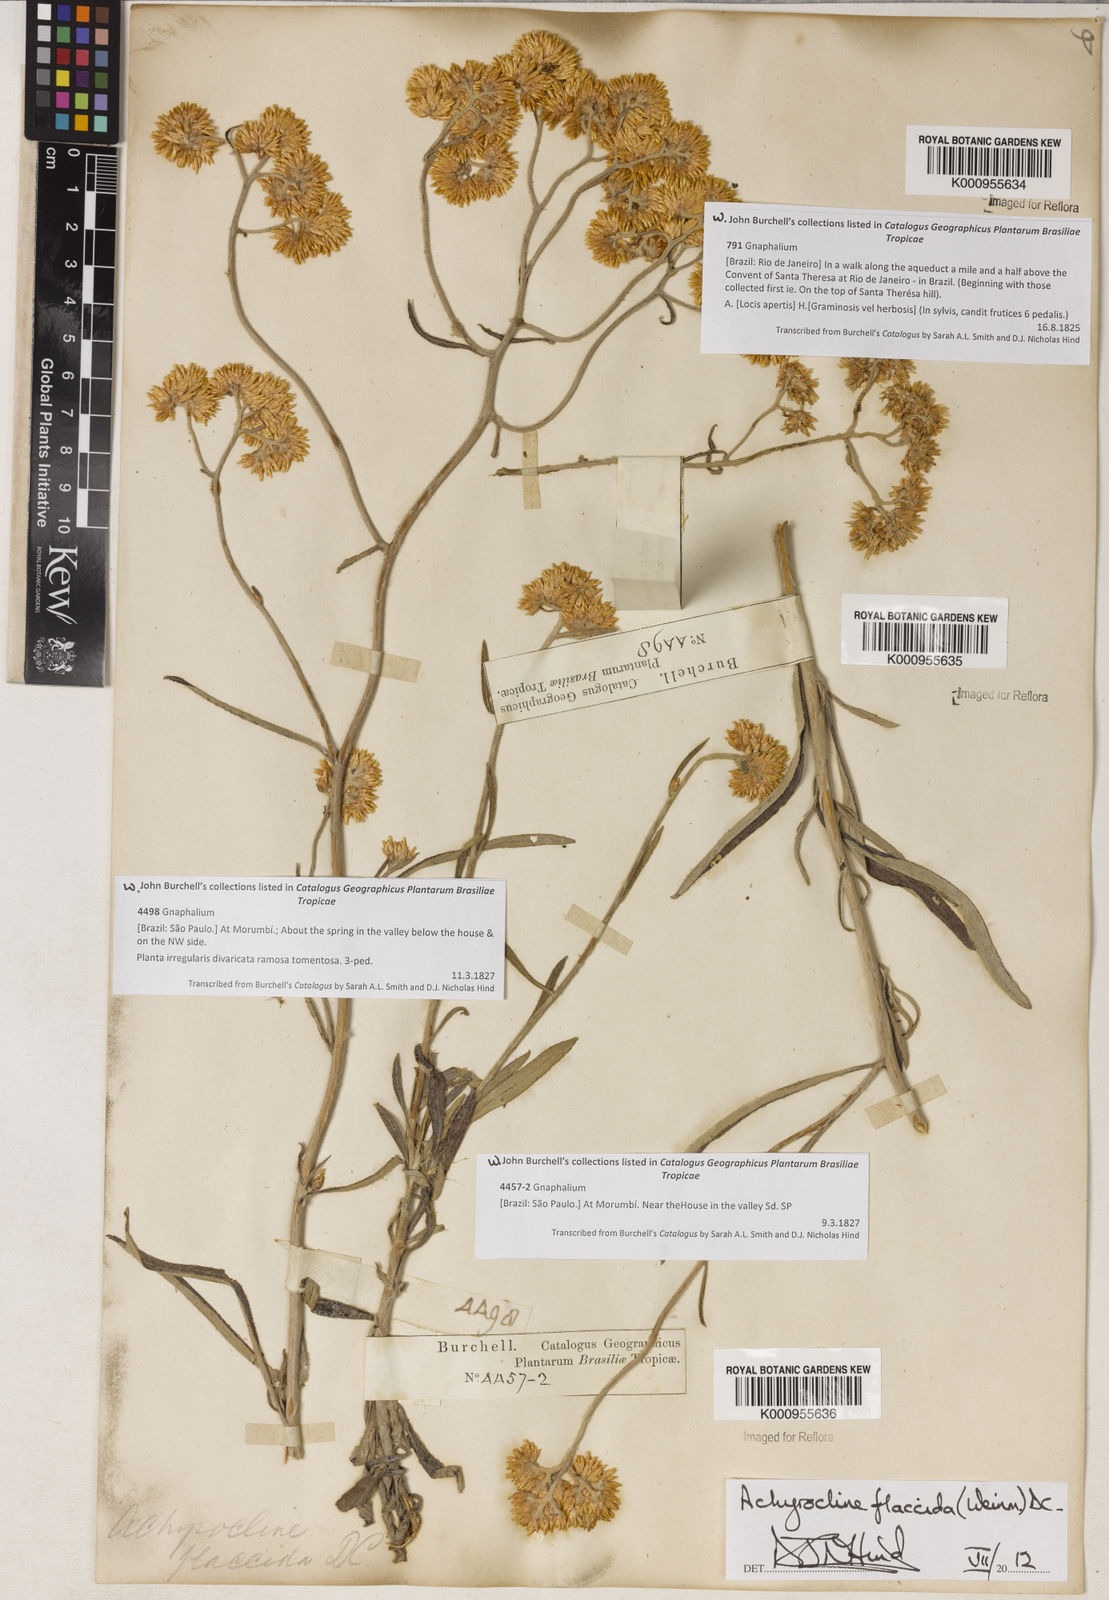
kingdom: Plantae
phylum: Tracheophyta
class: Magnoliopsida
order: Asterales
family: Asteraceae
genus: Achyrocline
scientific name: Achyrocline flaccida
